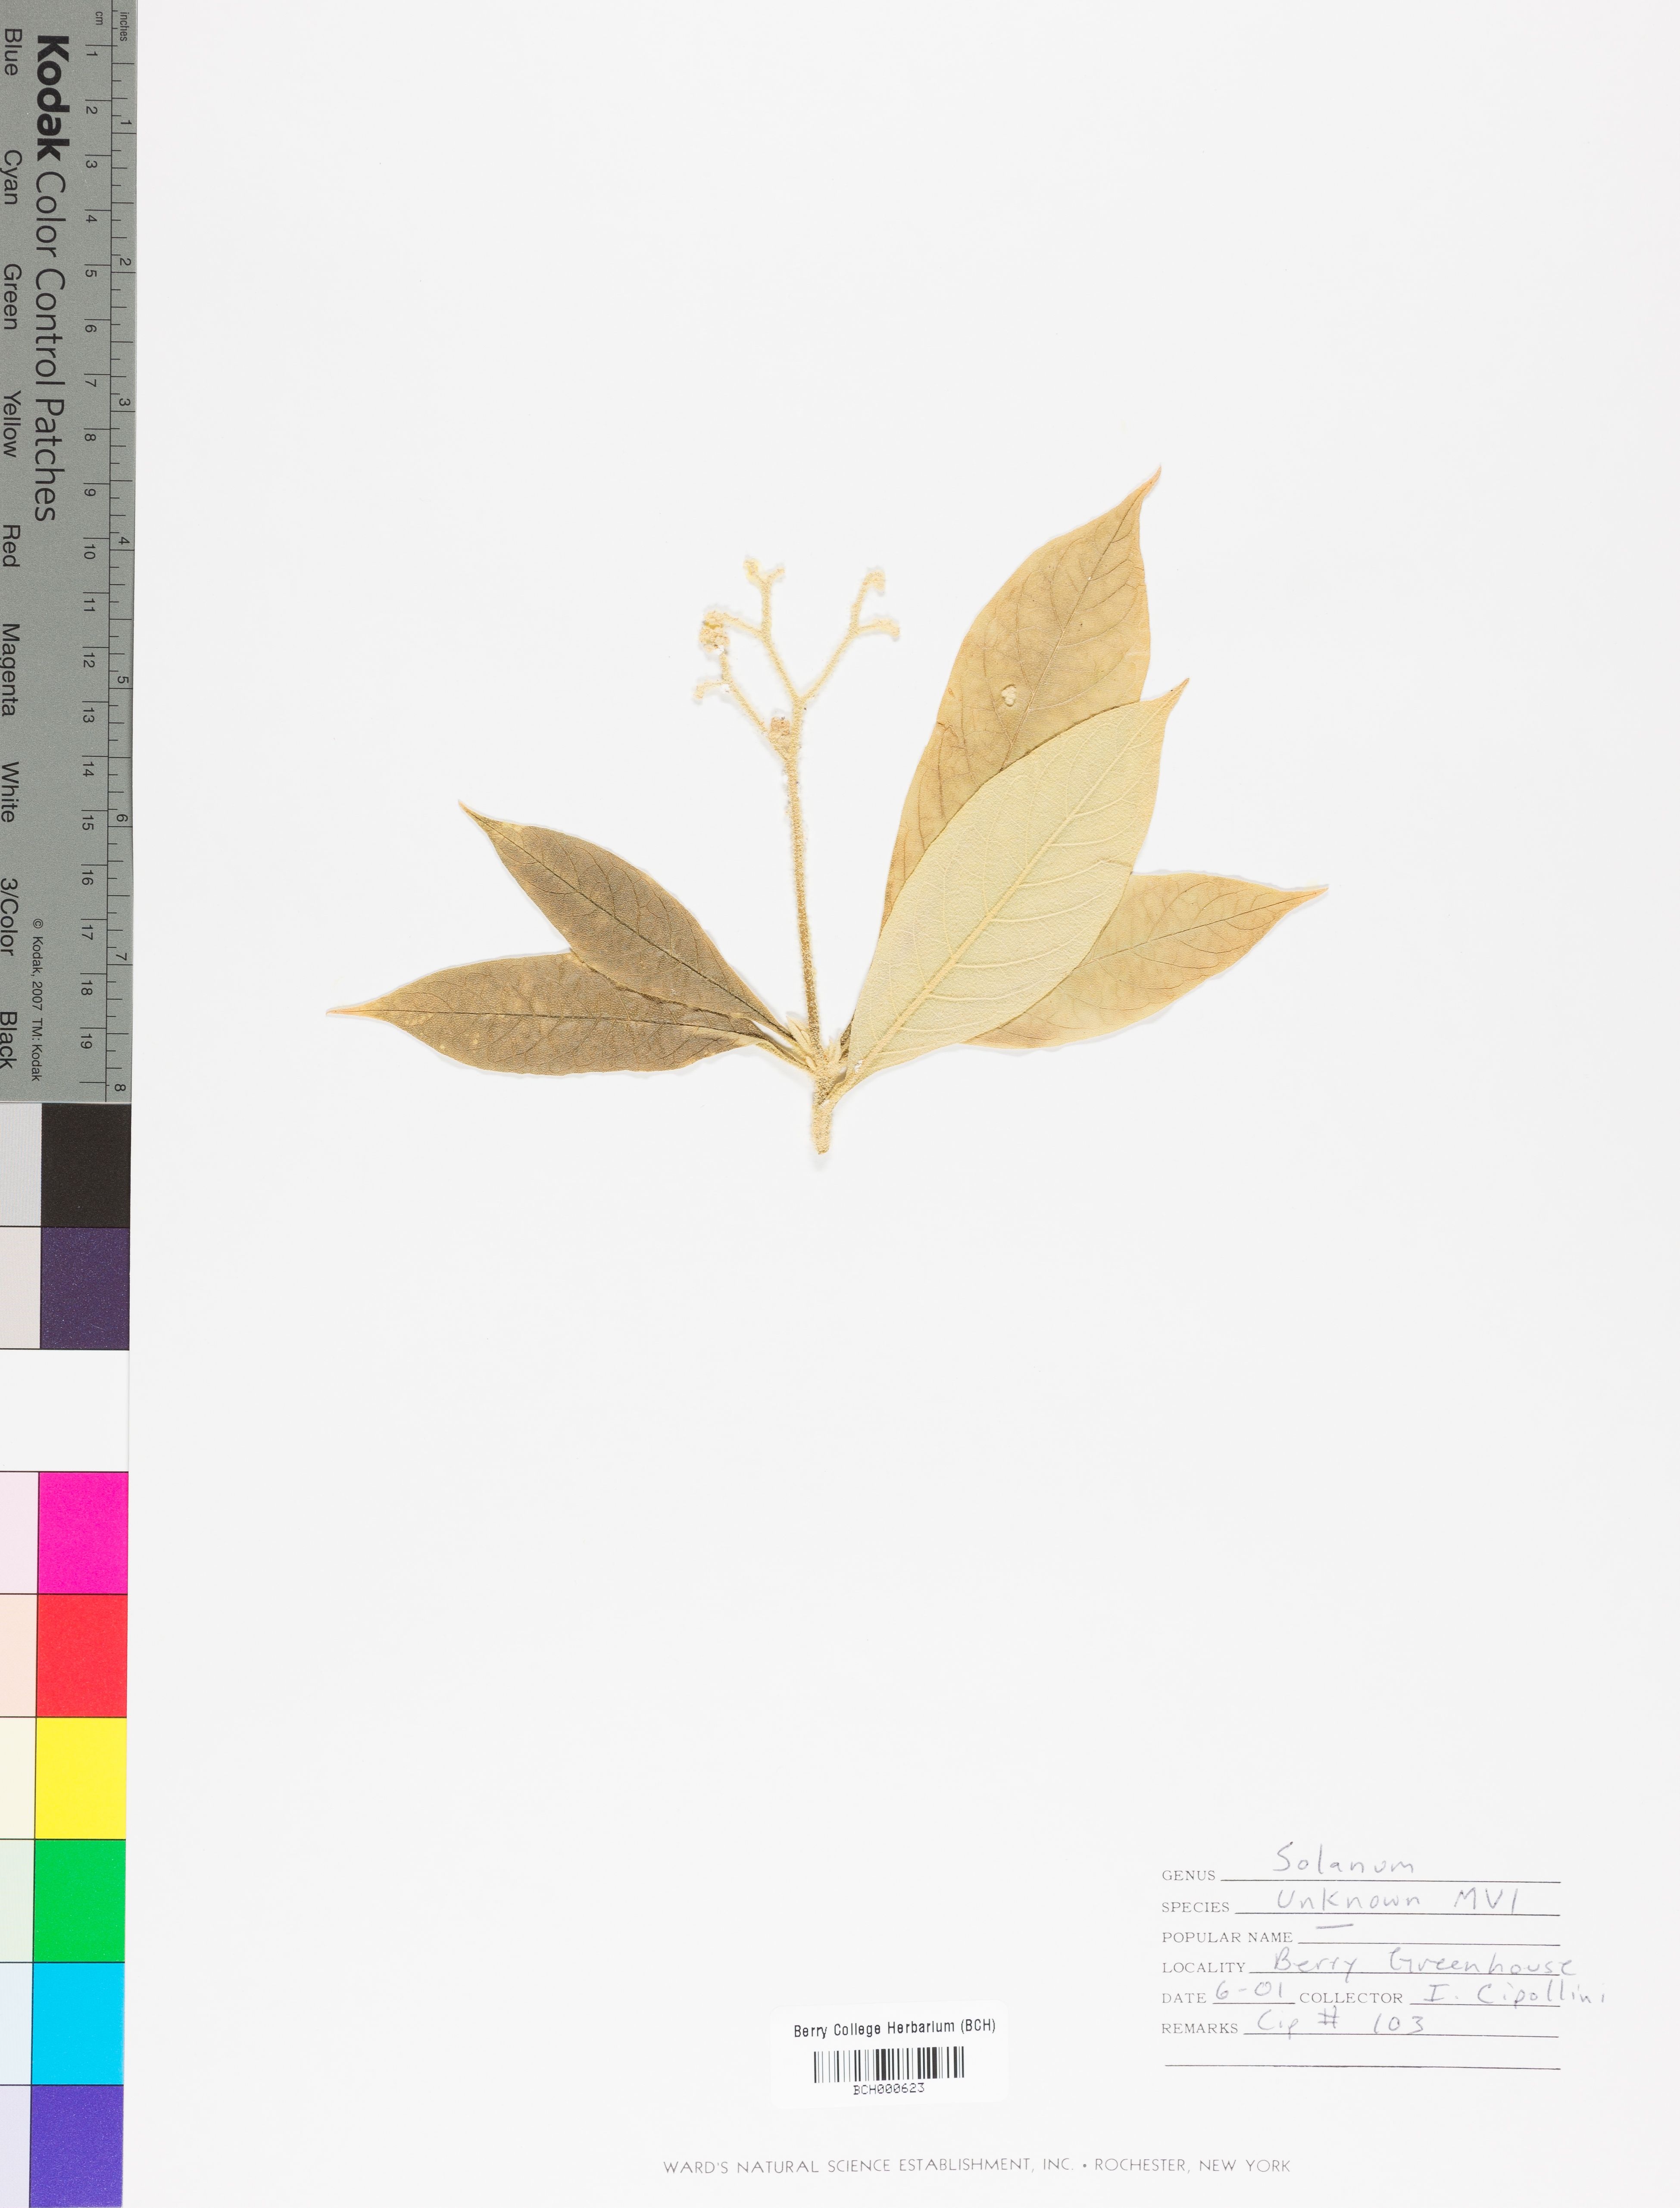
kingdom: Plantae
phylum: Tracheophyta
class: Magnoliopsida
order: Solanales
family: Solanaceae
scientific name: Solanaceae
